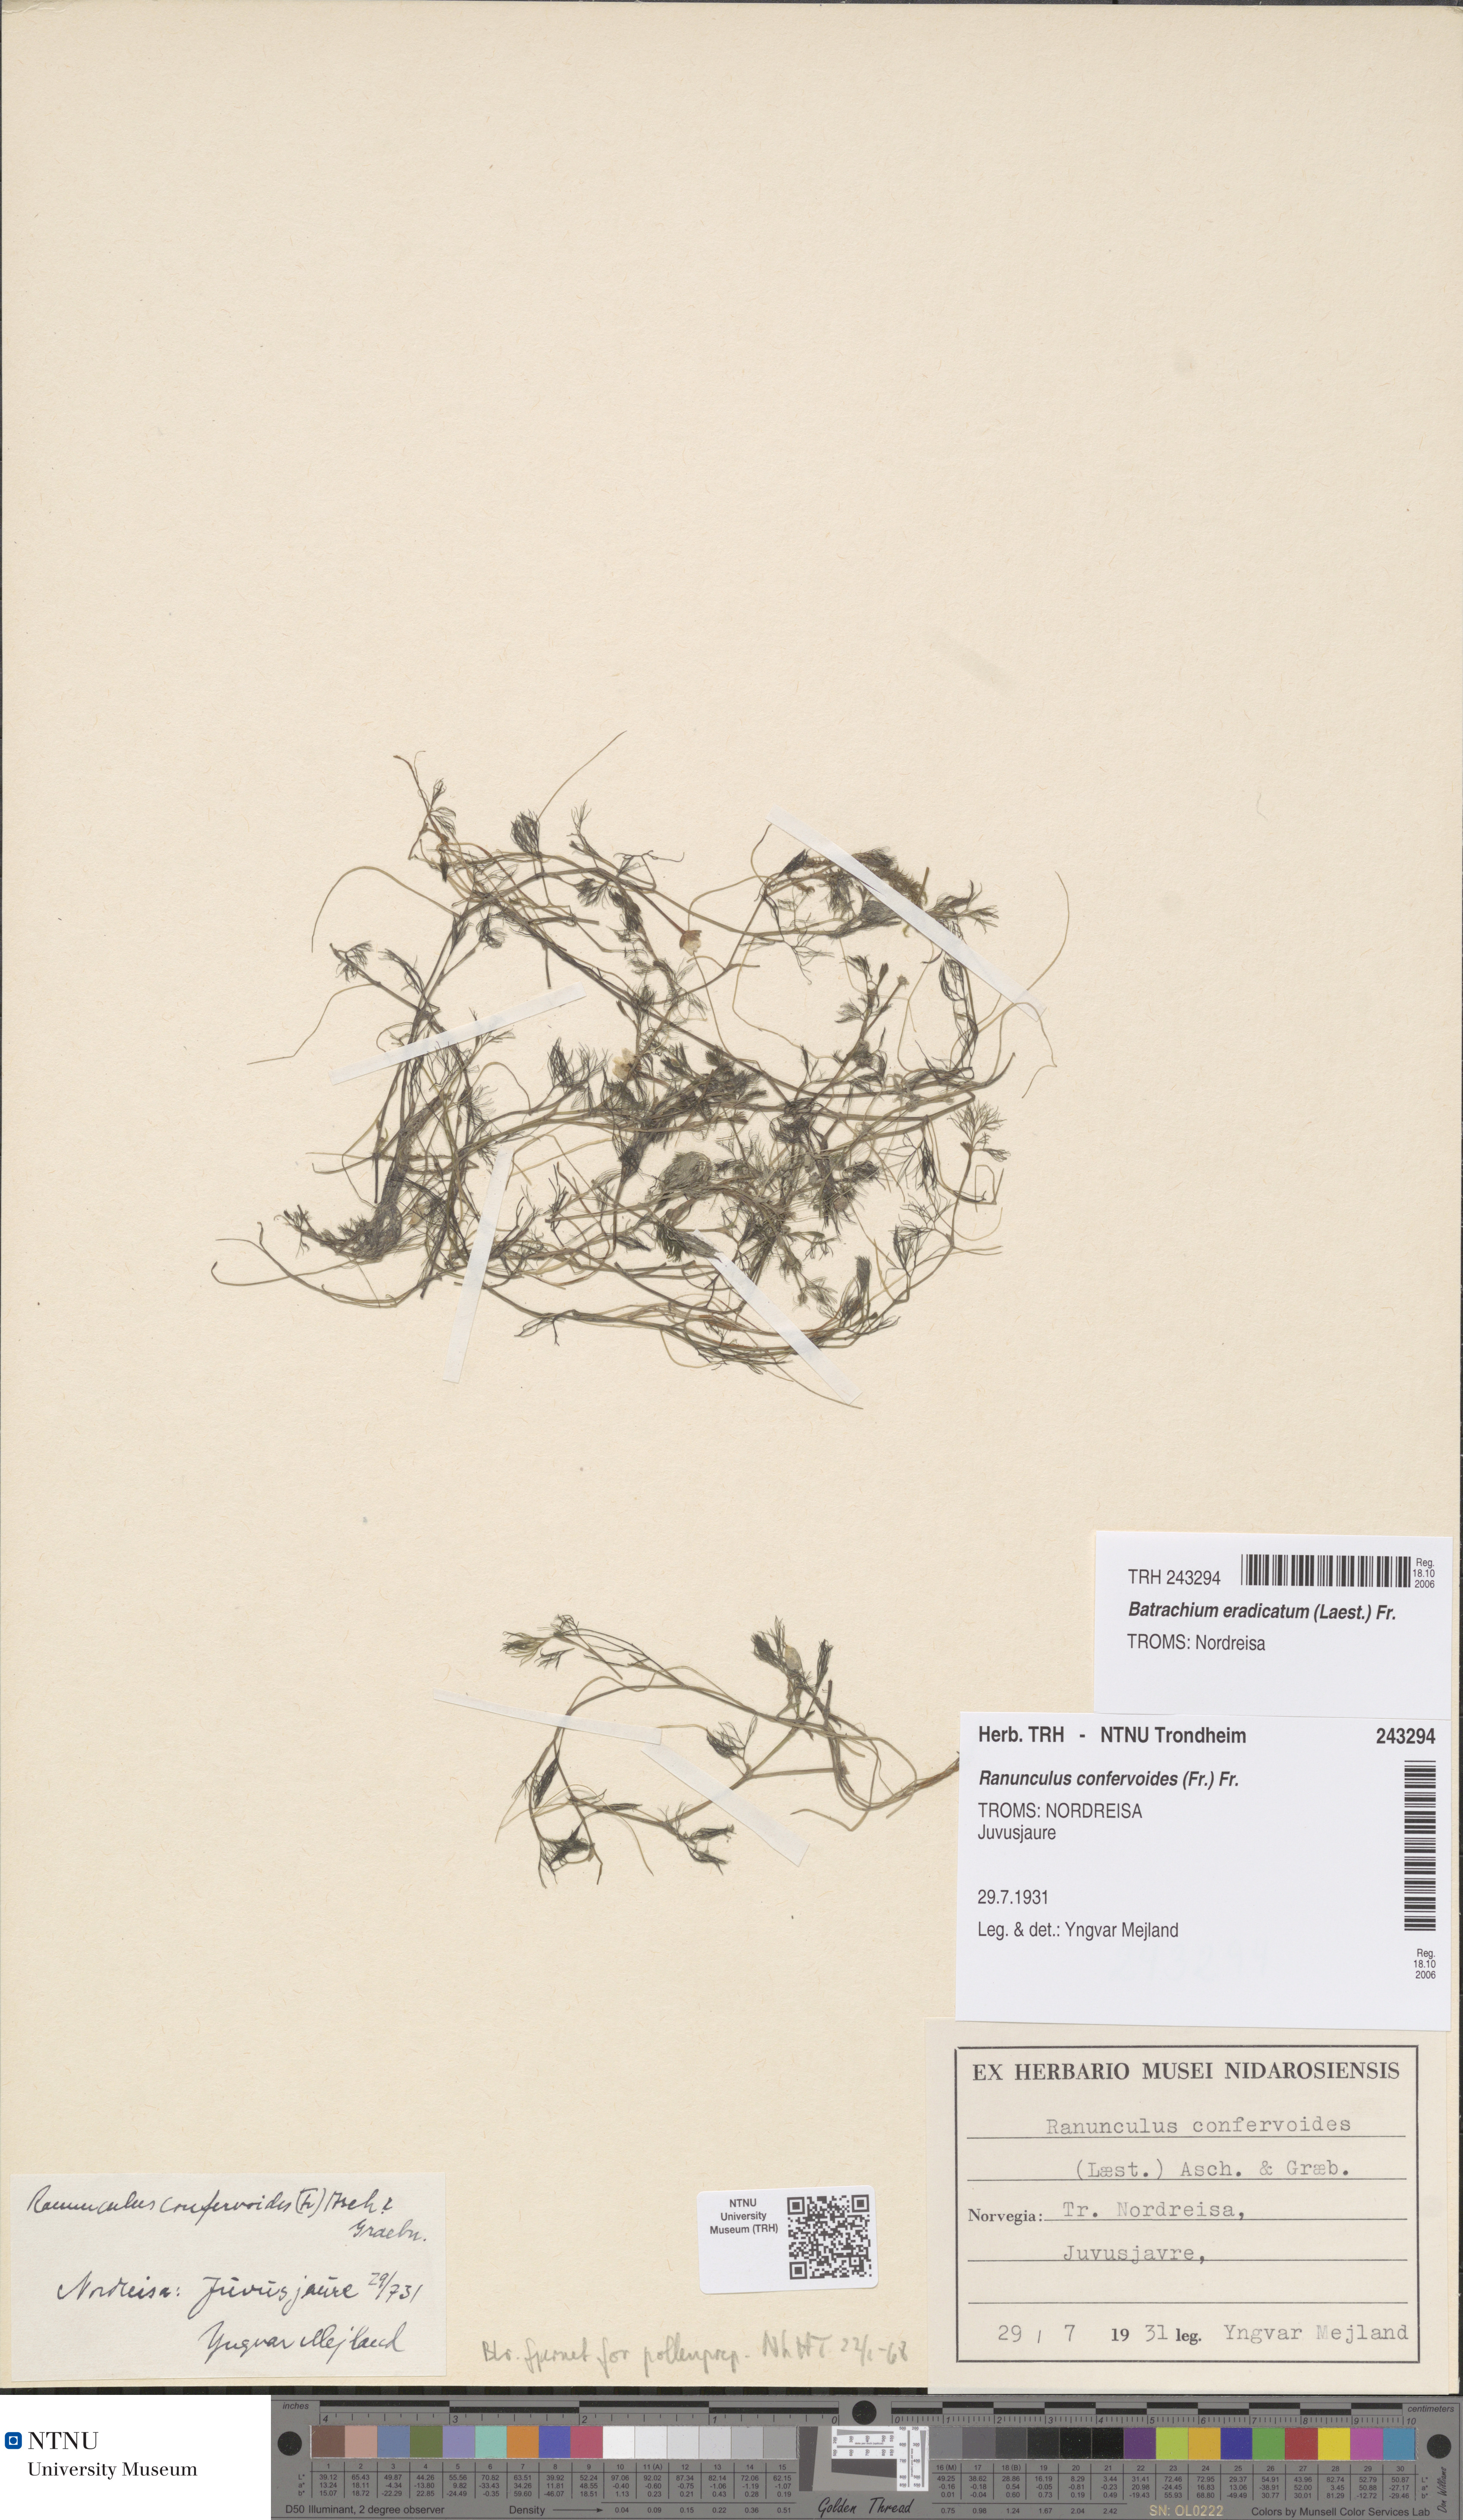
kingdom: Plantae
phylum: Tracheophyta
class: Magnoliopsida
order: Ranunculales
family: Ranunculaceae
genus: Ranunculus
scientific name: Ranunculus confervoides
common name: Delicate buttercup
